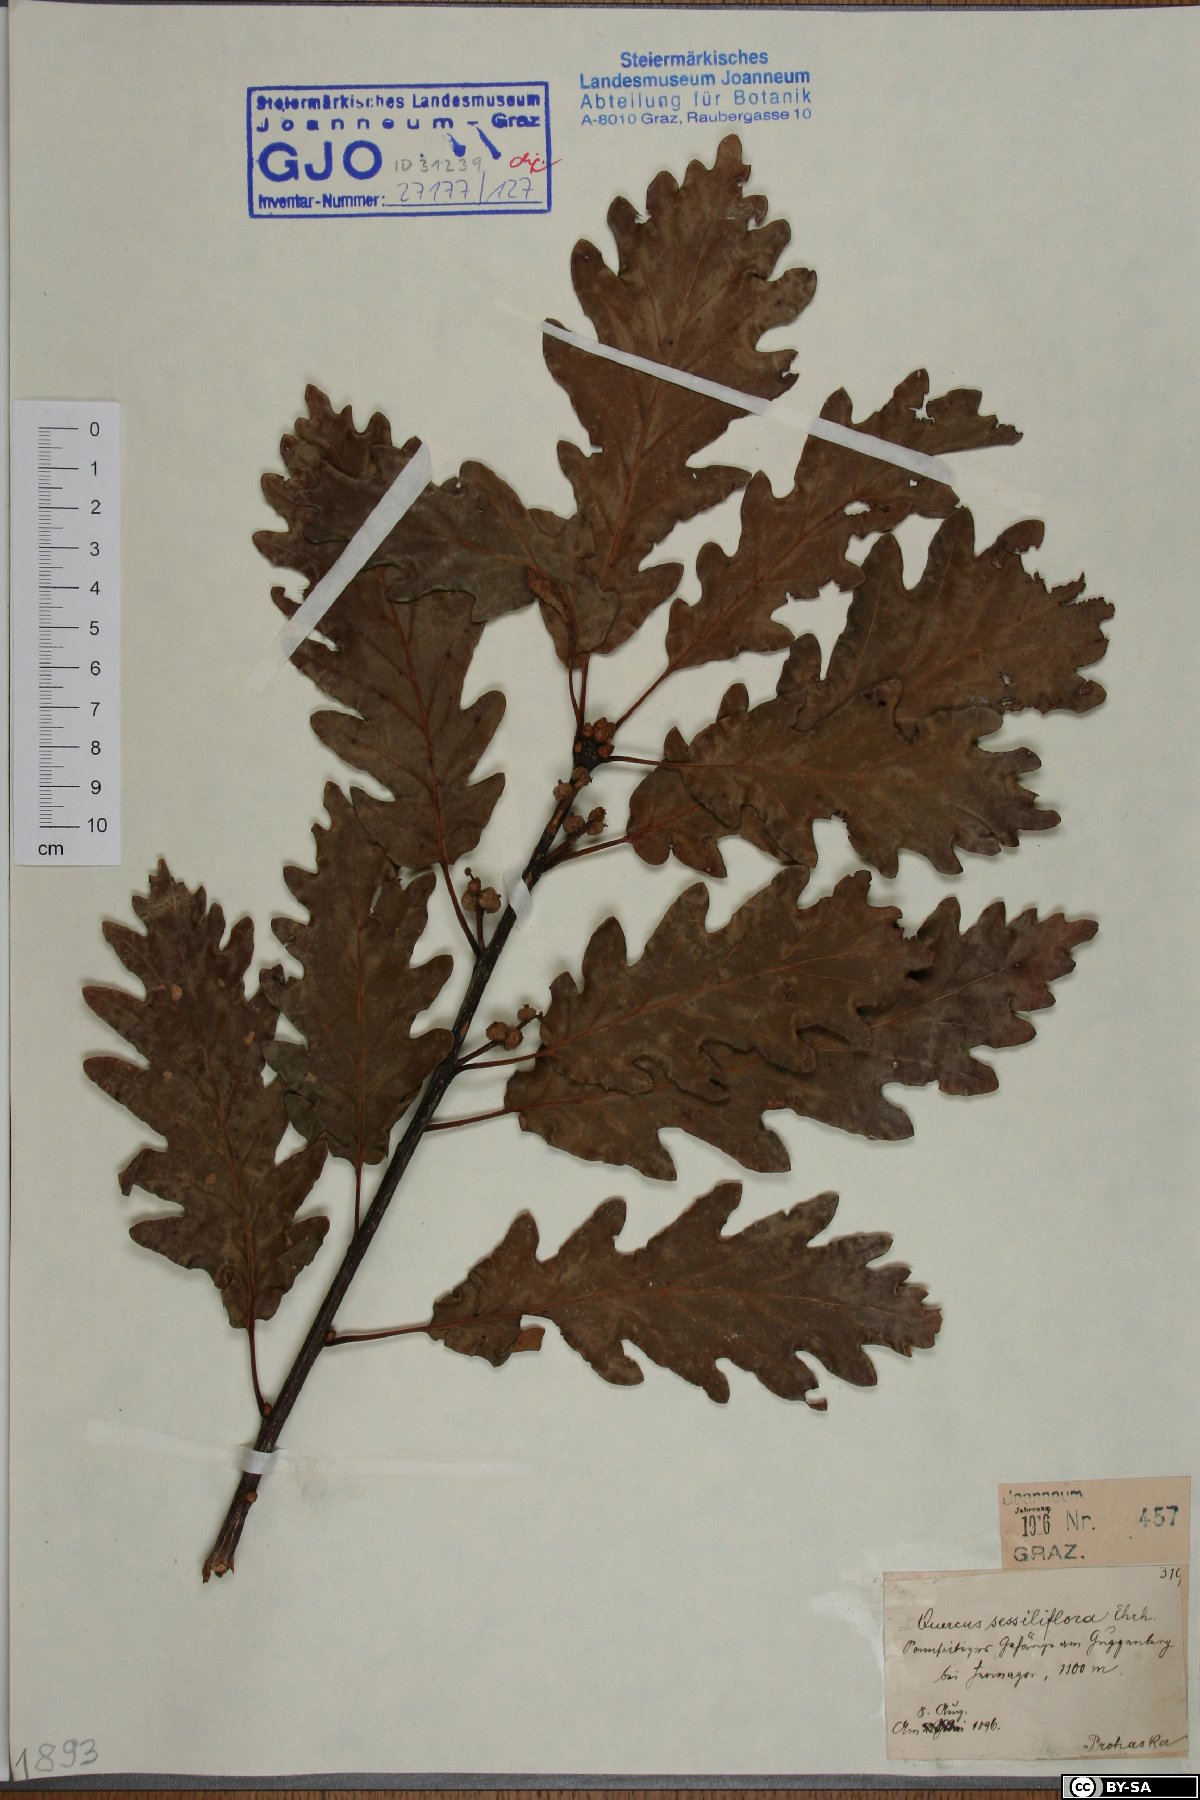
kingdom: Plantae
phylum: Tracheophyta
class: Magnoliopsida
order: Fagales
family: Fagaceae
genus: Quercus
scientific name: Quercus petraea
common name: Sessile oak
